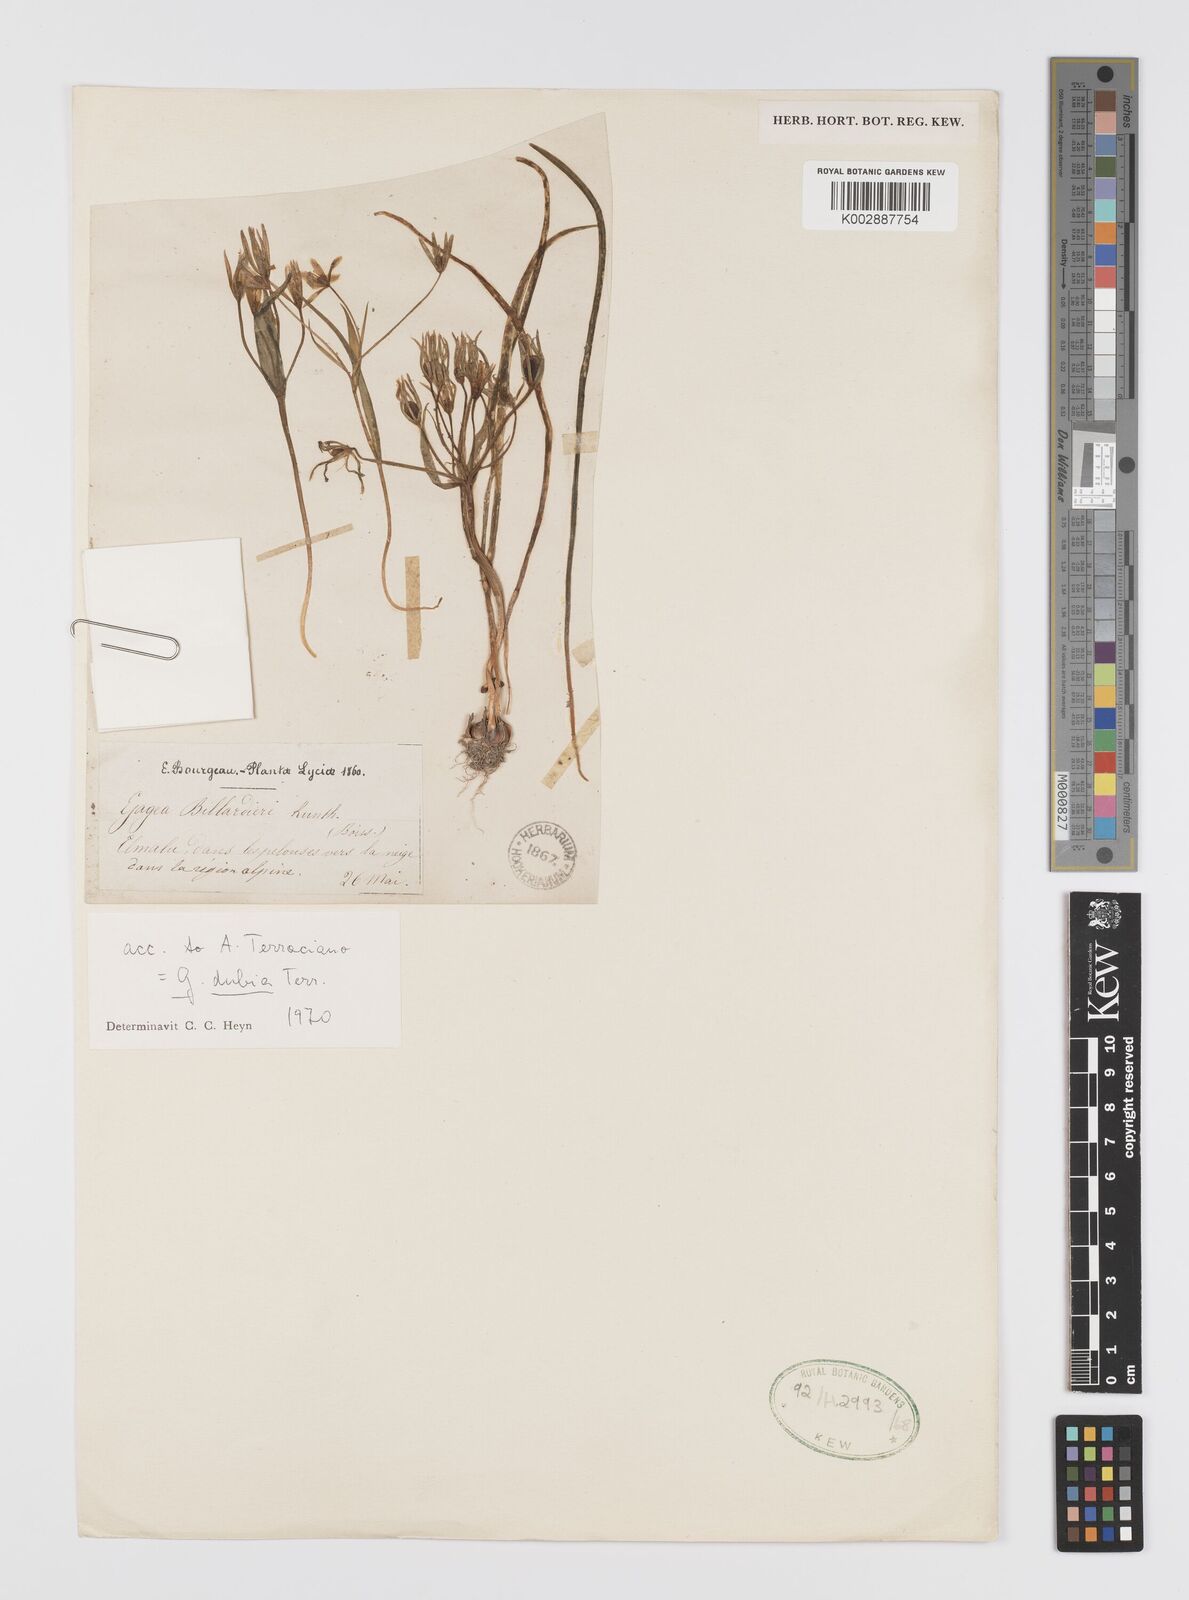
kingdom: Plantae
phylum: Tracheophyta
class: Liliopsida
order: Liliales
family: Liliaceae
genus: Gagea
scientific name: Gagea minima
